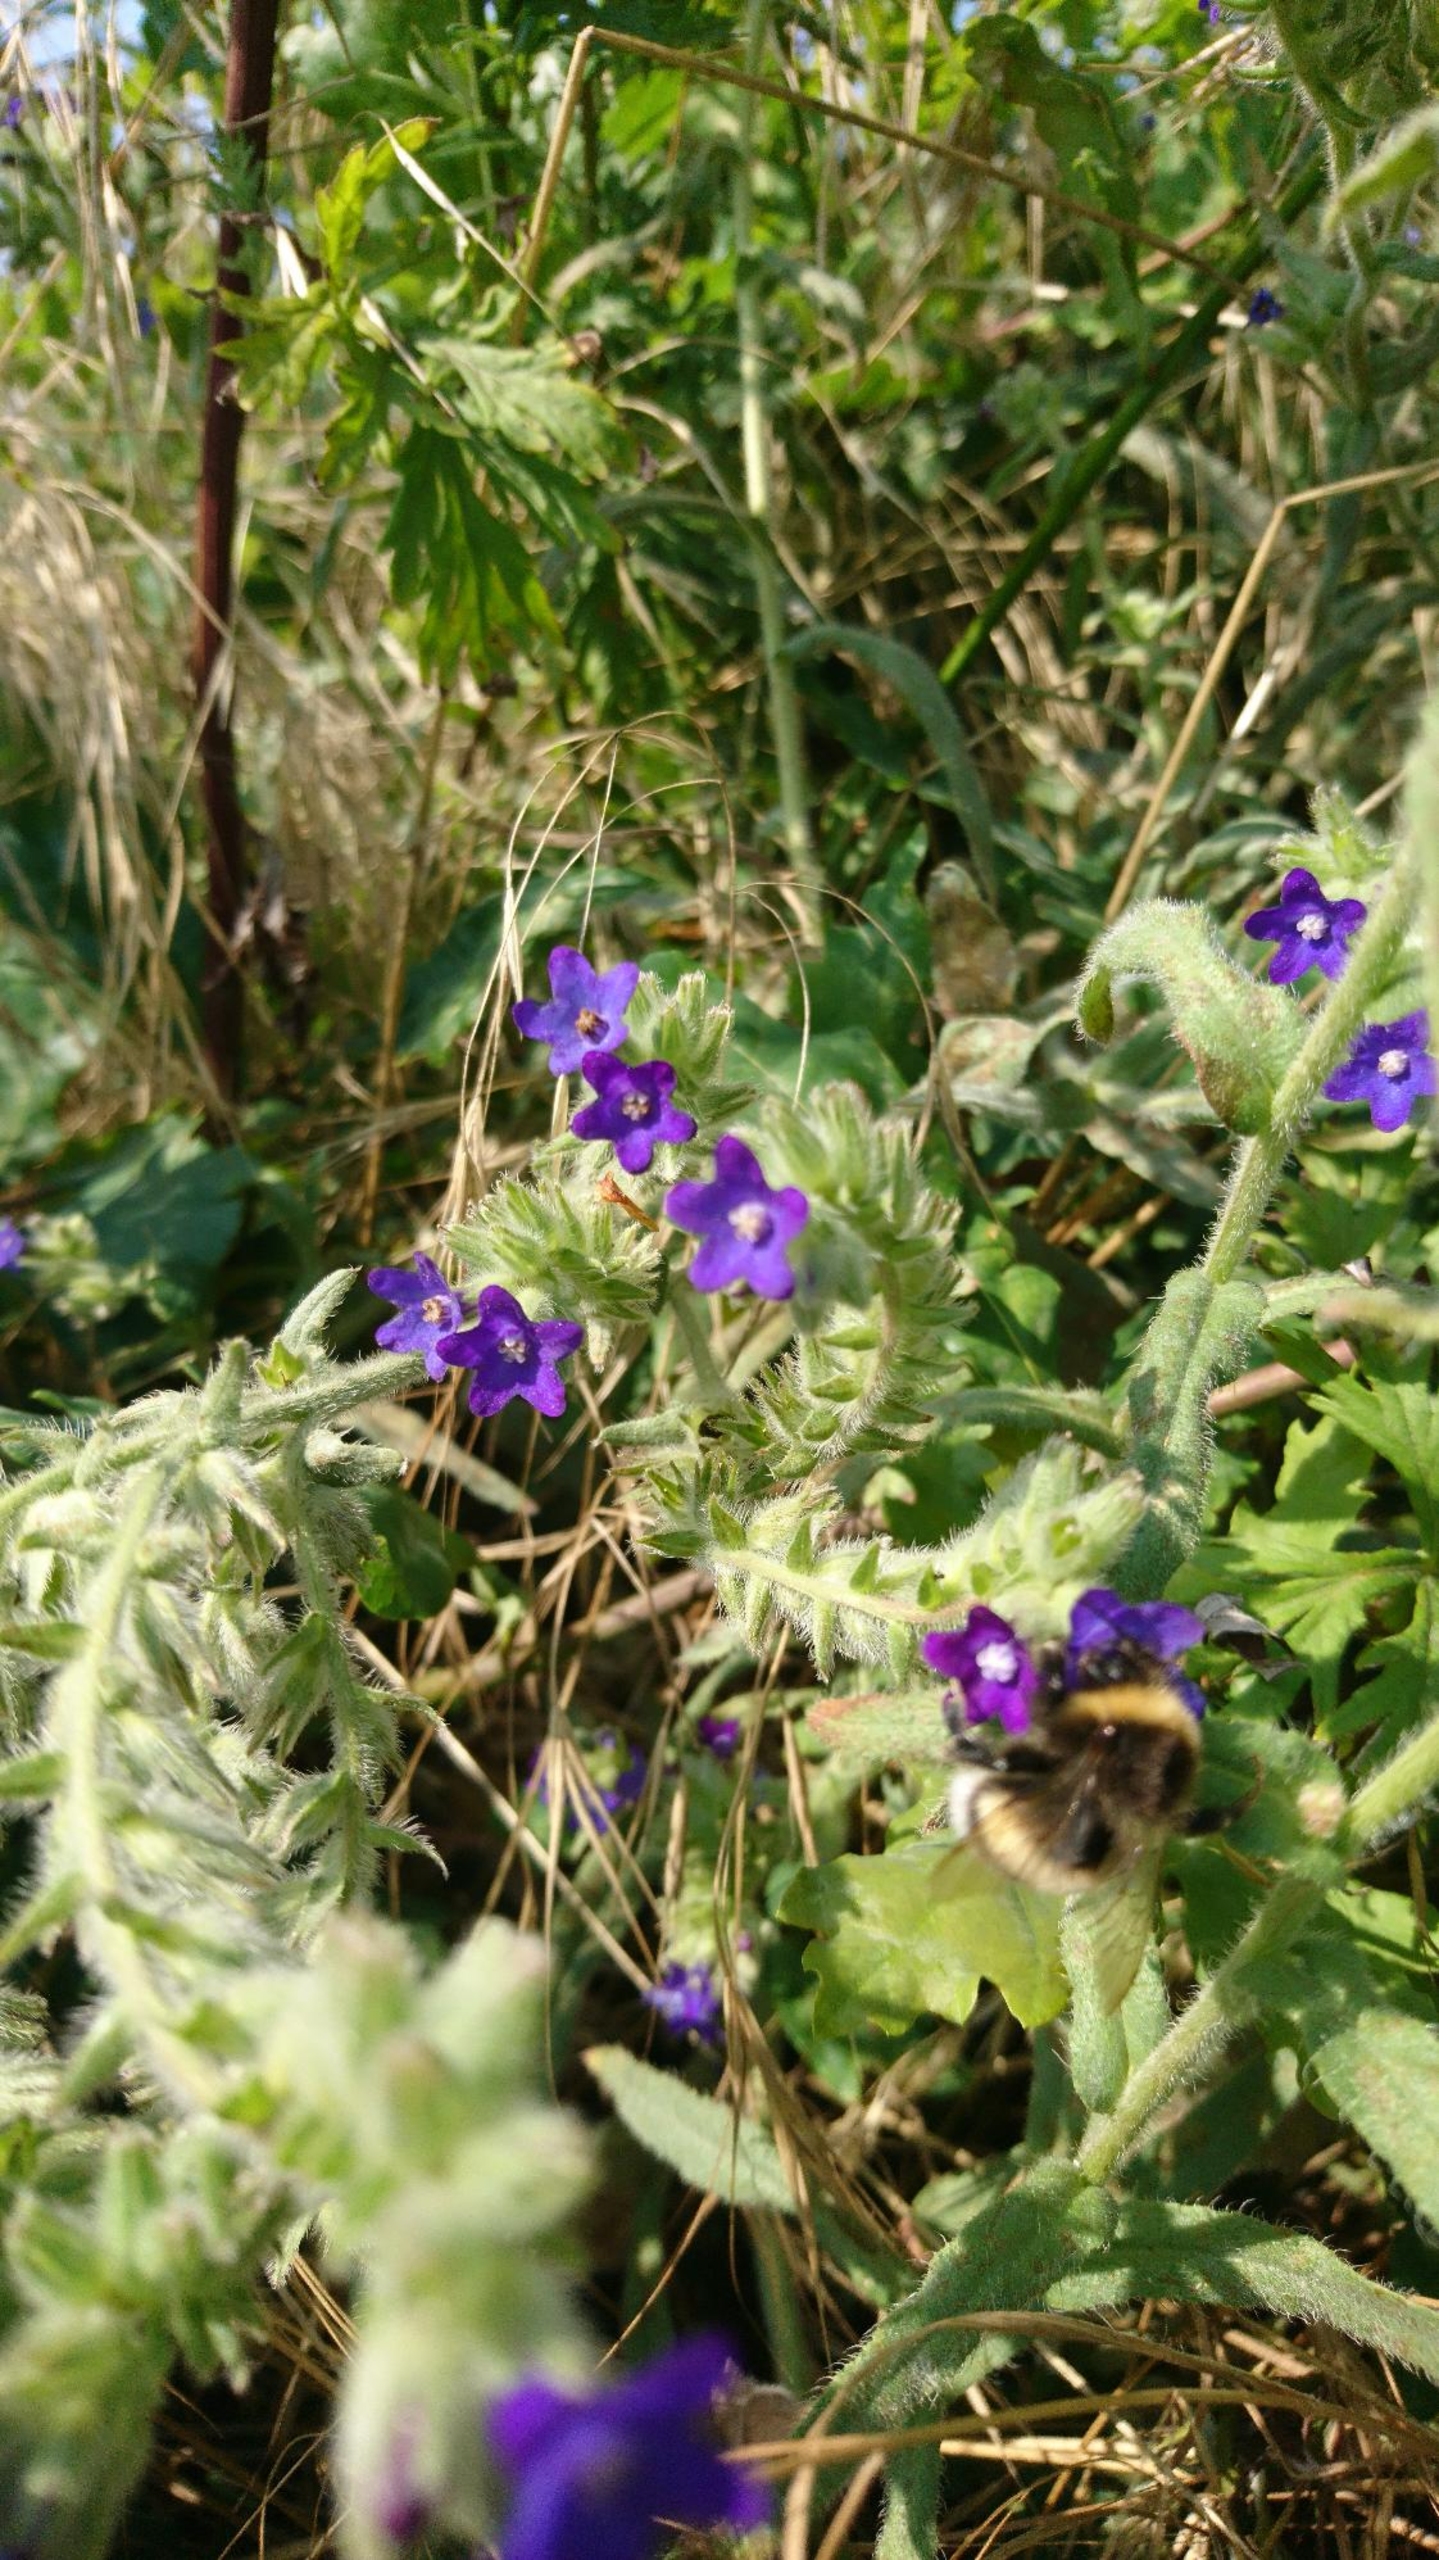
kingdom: Plantae
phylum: Tracheophyta
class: Magnoliopsida
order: Boraginales
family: Boraginaceae
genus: Anchusa
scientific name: Anchusa officinalis
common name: Læge-oksetunge
